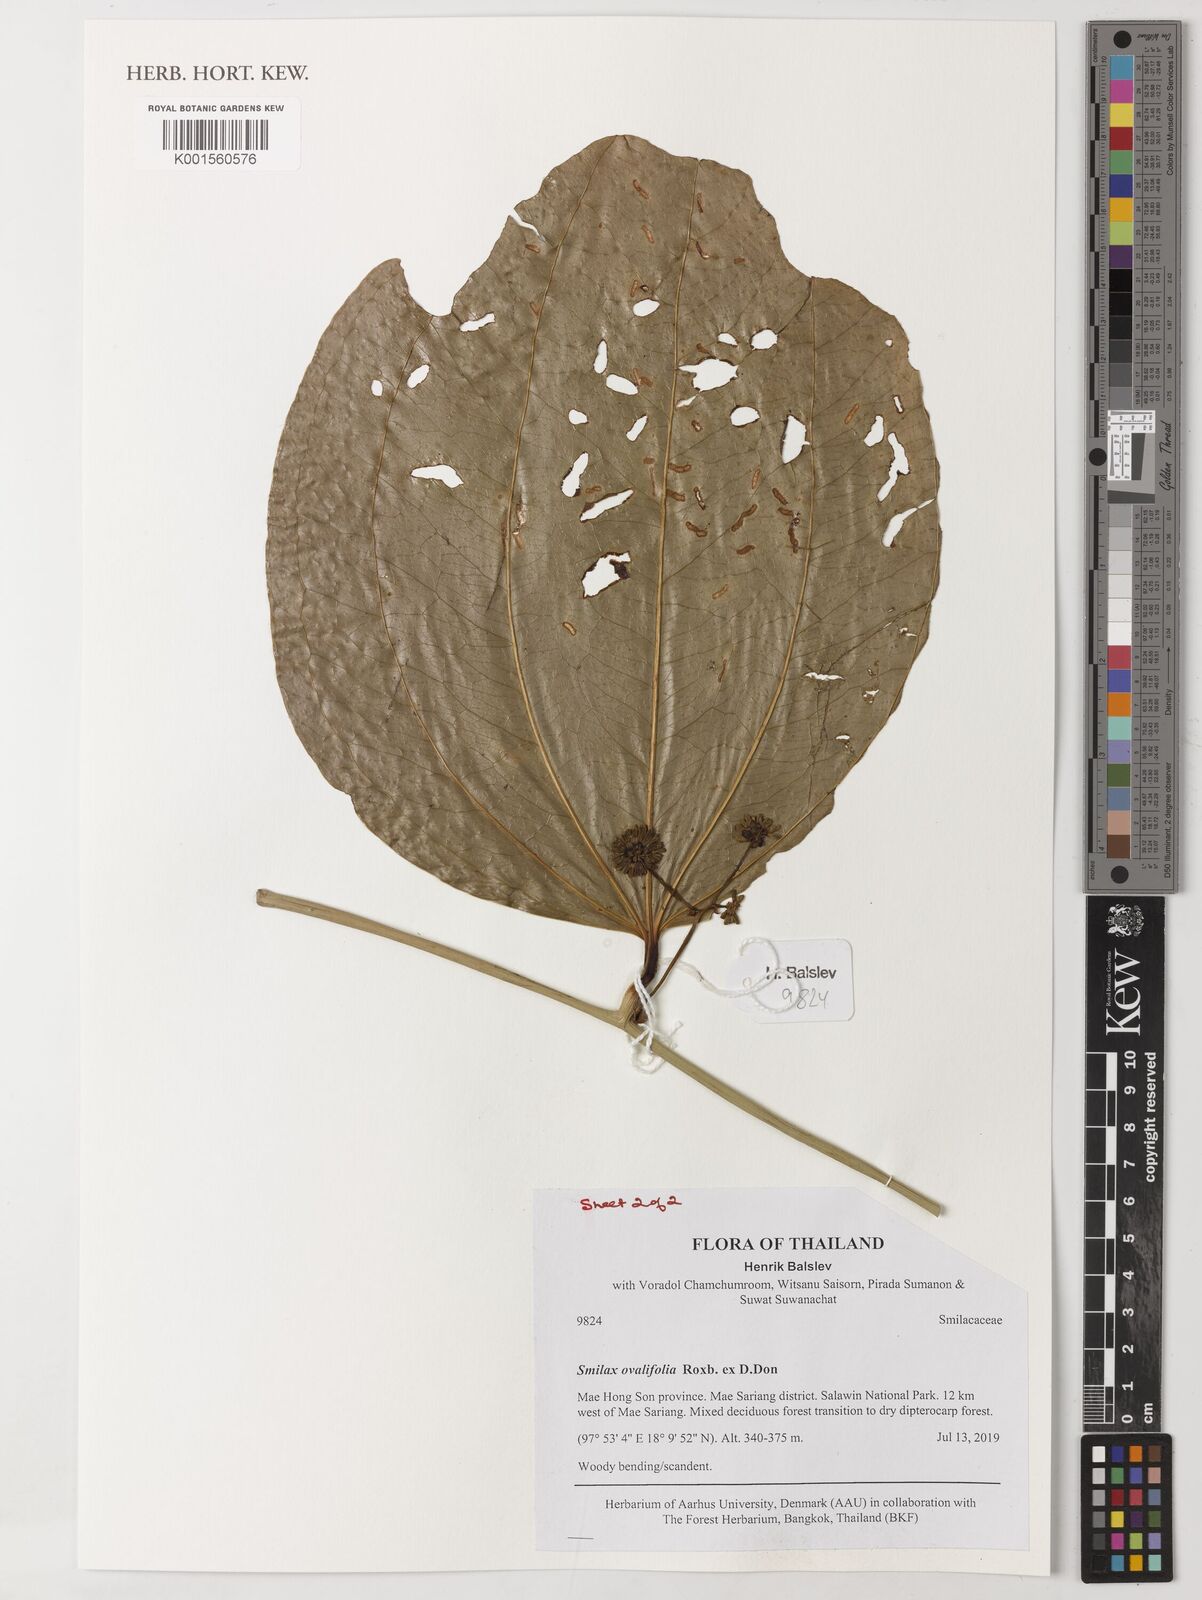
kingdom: Plantae
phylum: Tracheophyta
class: Liliopsida
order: Liliales
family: Smilacaceae
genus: Smilax
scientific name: Smilax ovalifolia
